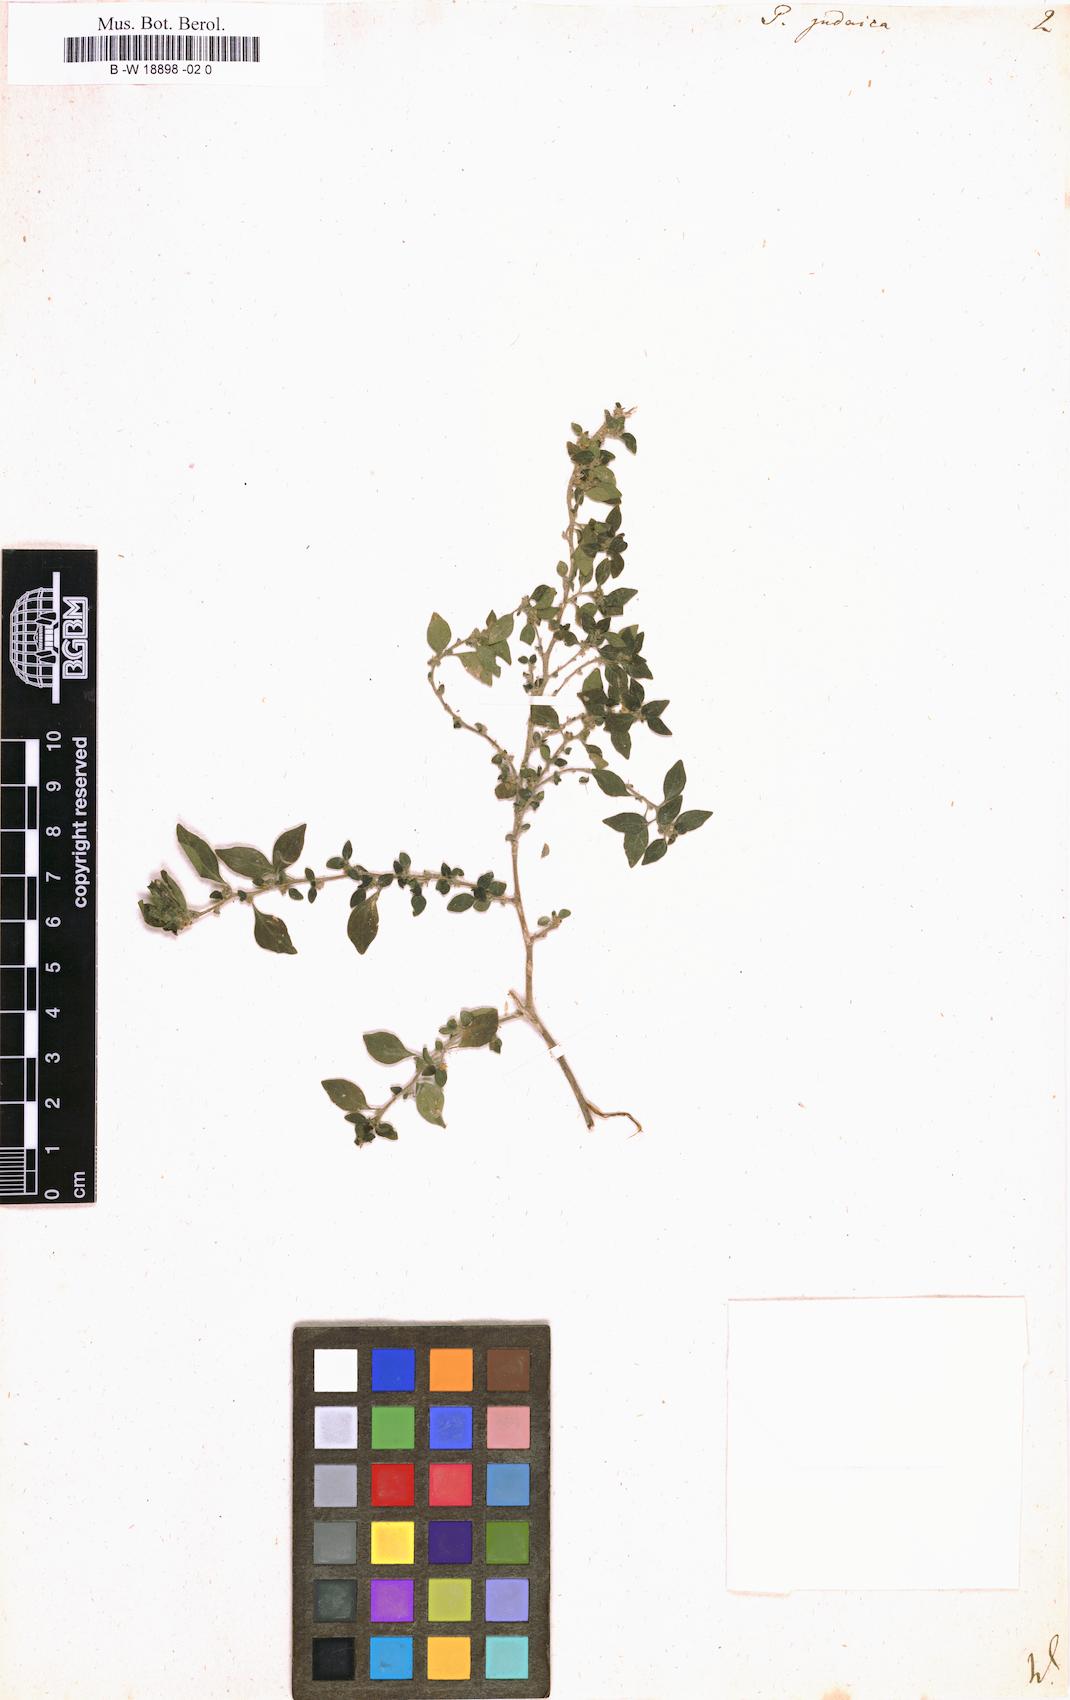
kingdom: Plantae
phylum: Tracheophyta
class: Magnoliopsida
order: Rosales
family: Urticaceae
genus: Parietaria
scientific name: Parietaria judaica
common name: Pellitory-of-the-wall
